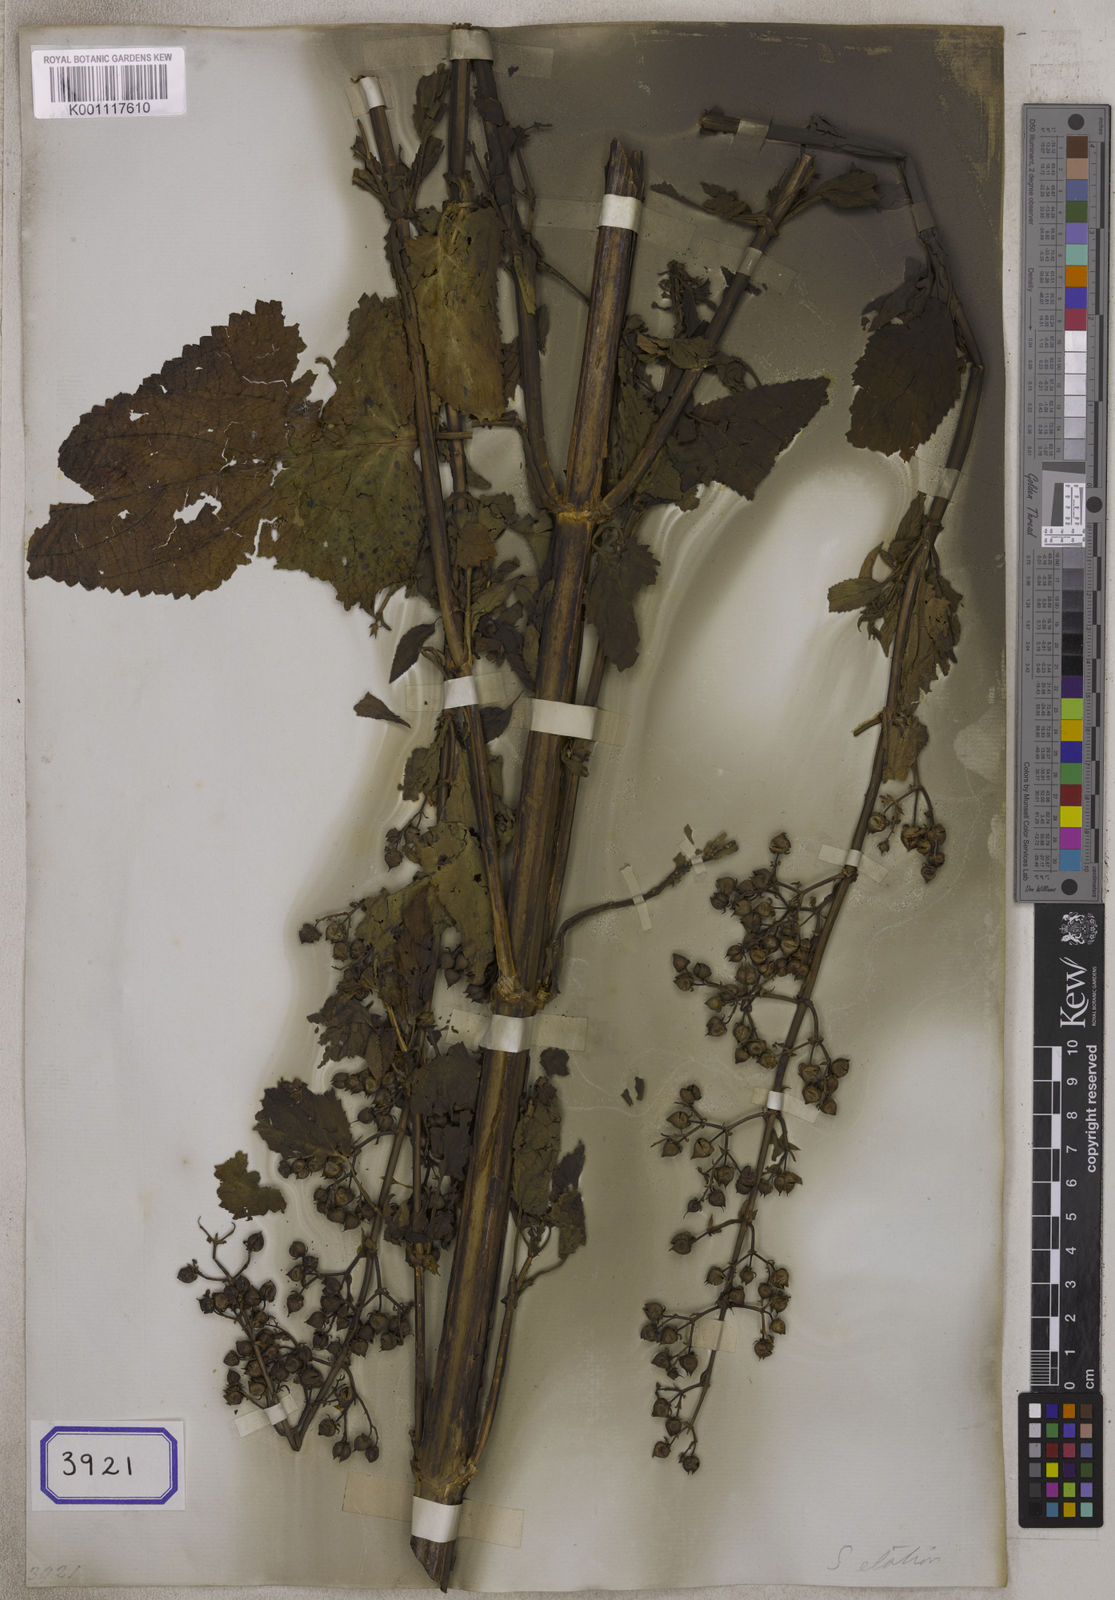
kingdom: Plantae
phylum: Tracheophyta
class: Magnoliopsida
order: Lamiales
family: Scrophulariaceae
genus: Scrophularia
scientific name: Scrophularia elatior
